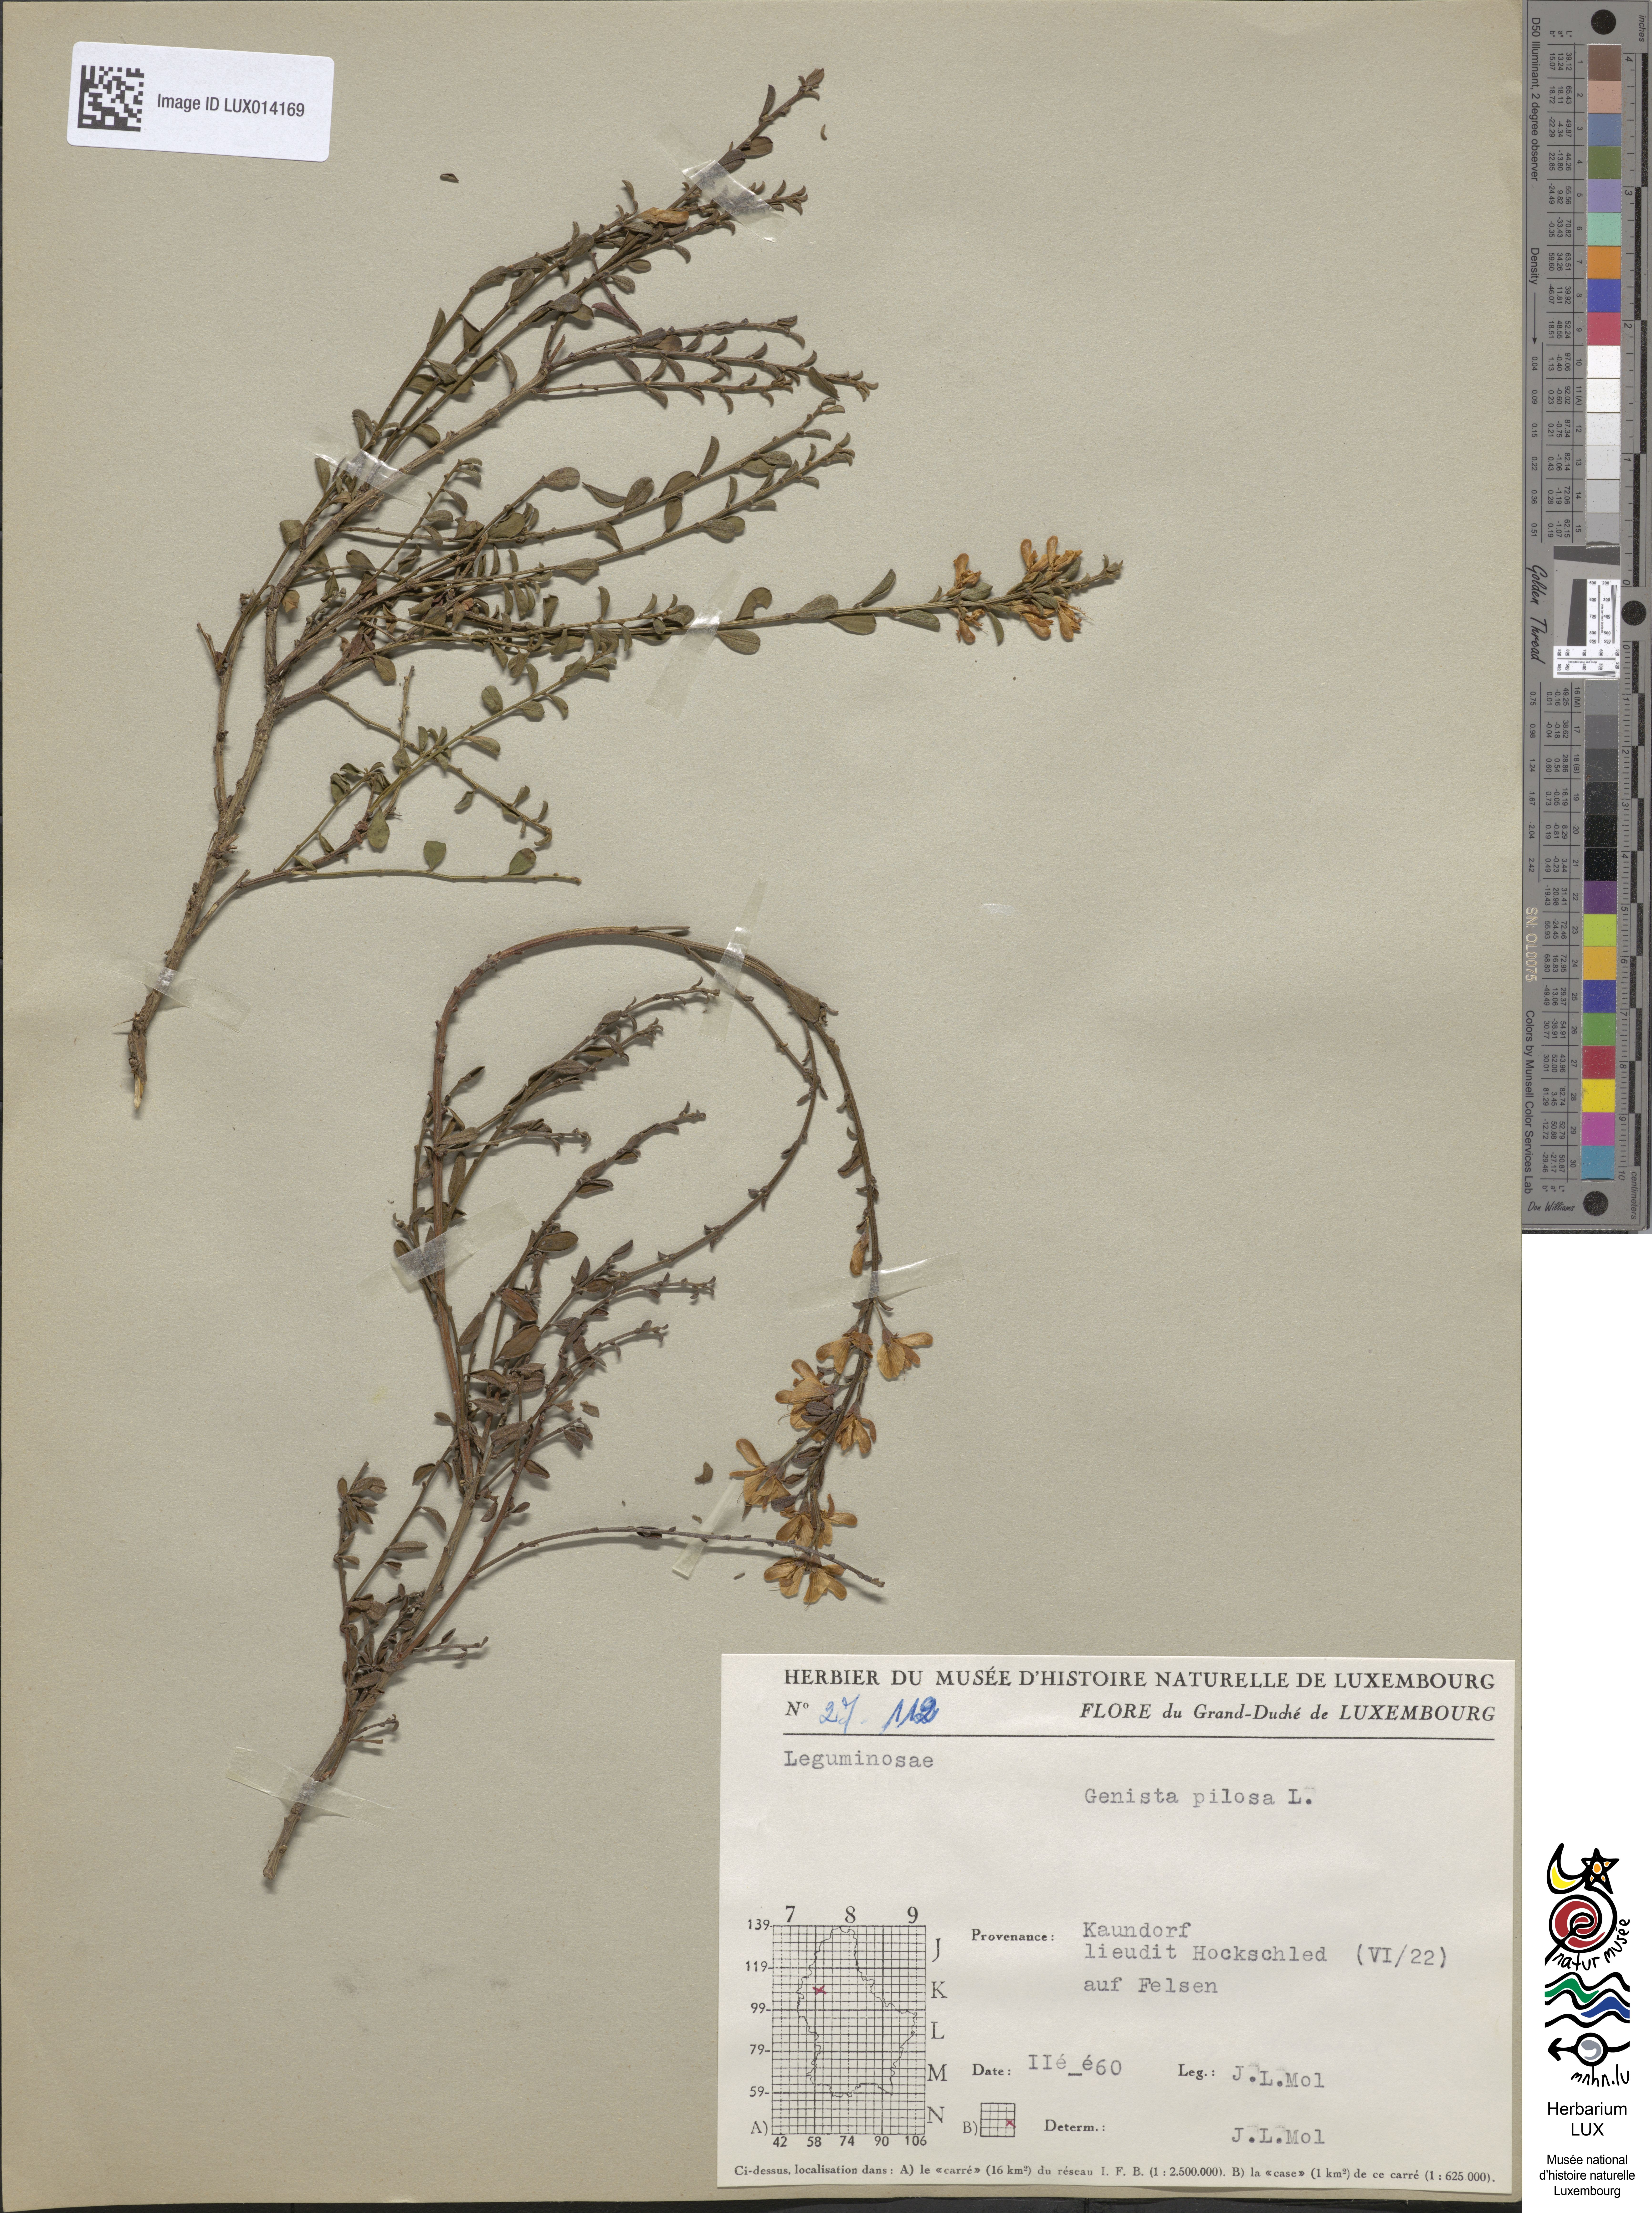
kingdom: Plantae
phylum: Tracheophyta
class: Magnoliopsida
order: Fabales
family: Fabaceae
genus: Genista
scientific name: Genista pilosa
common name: Hairy greenweed
